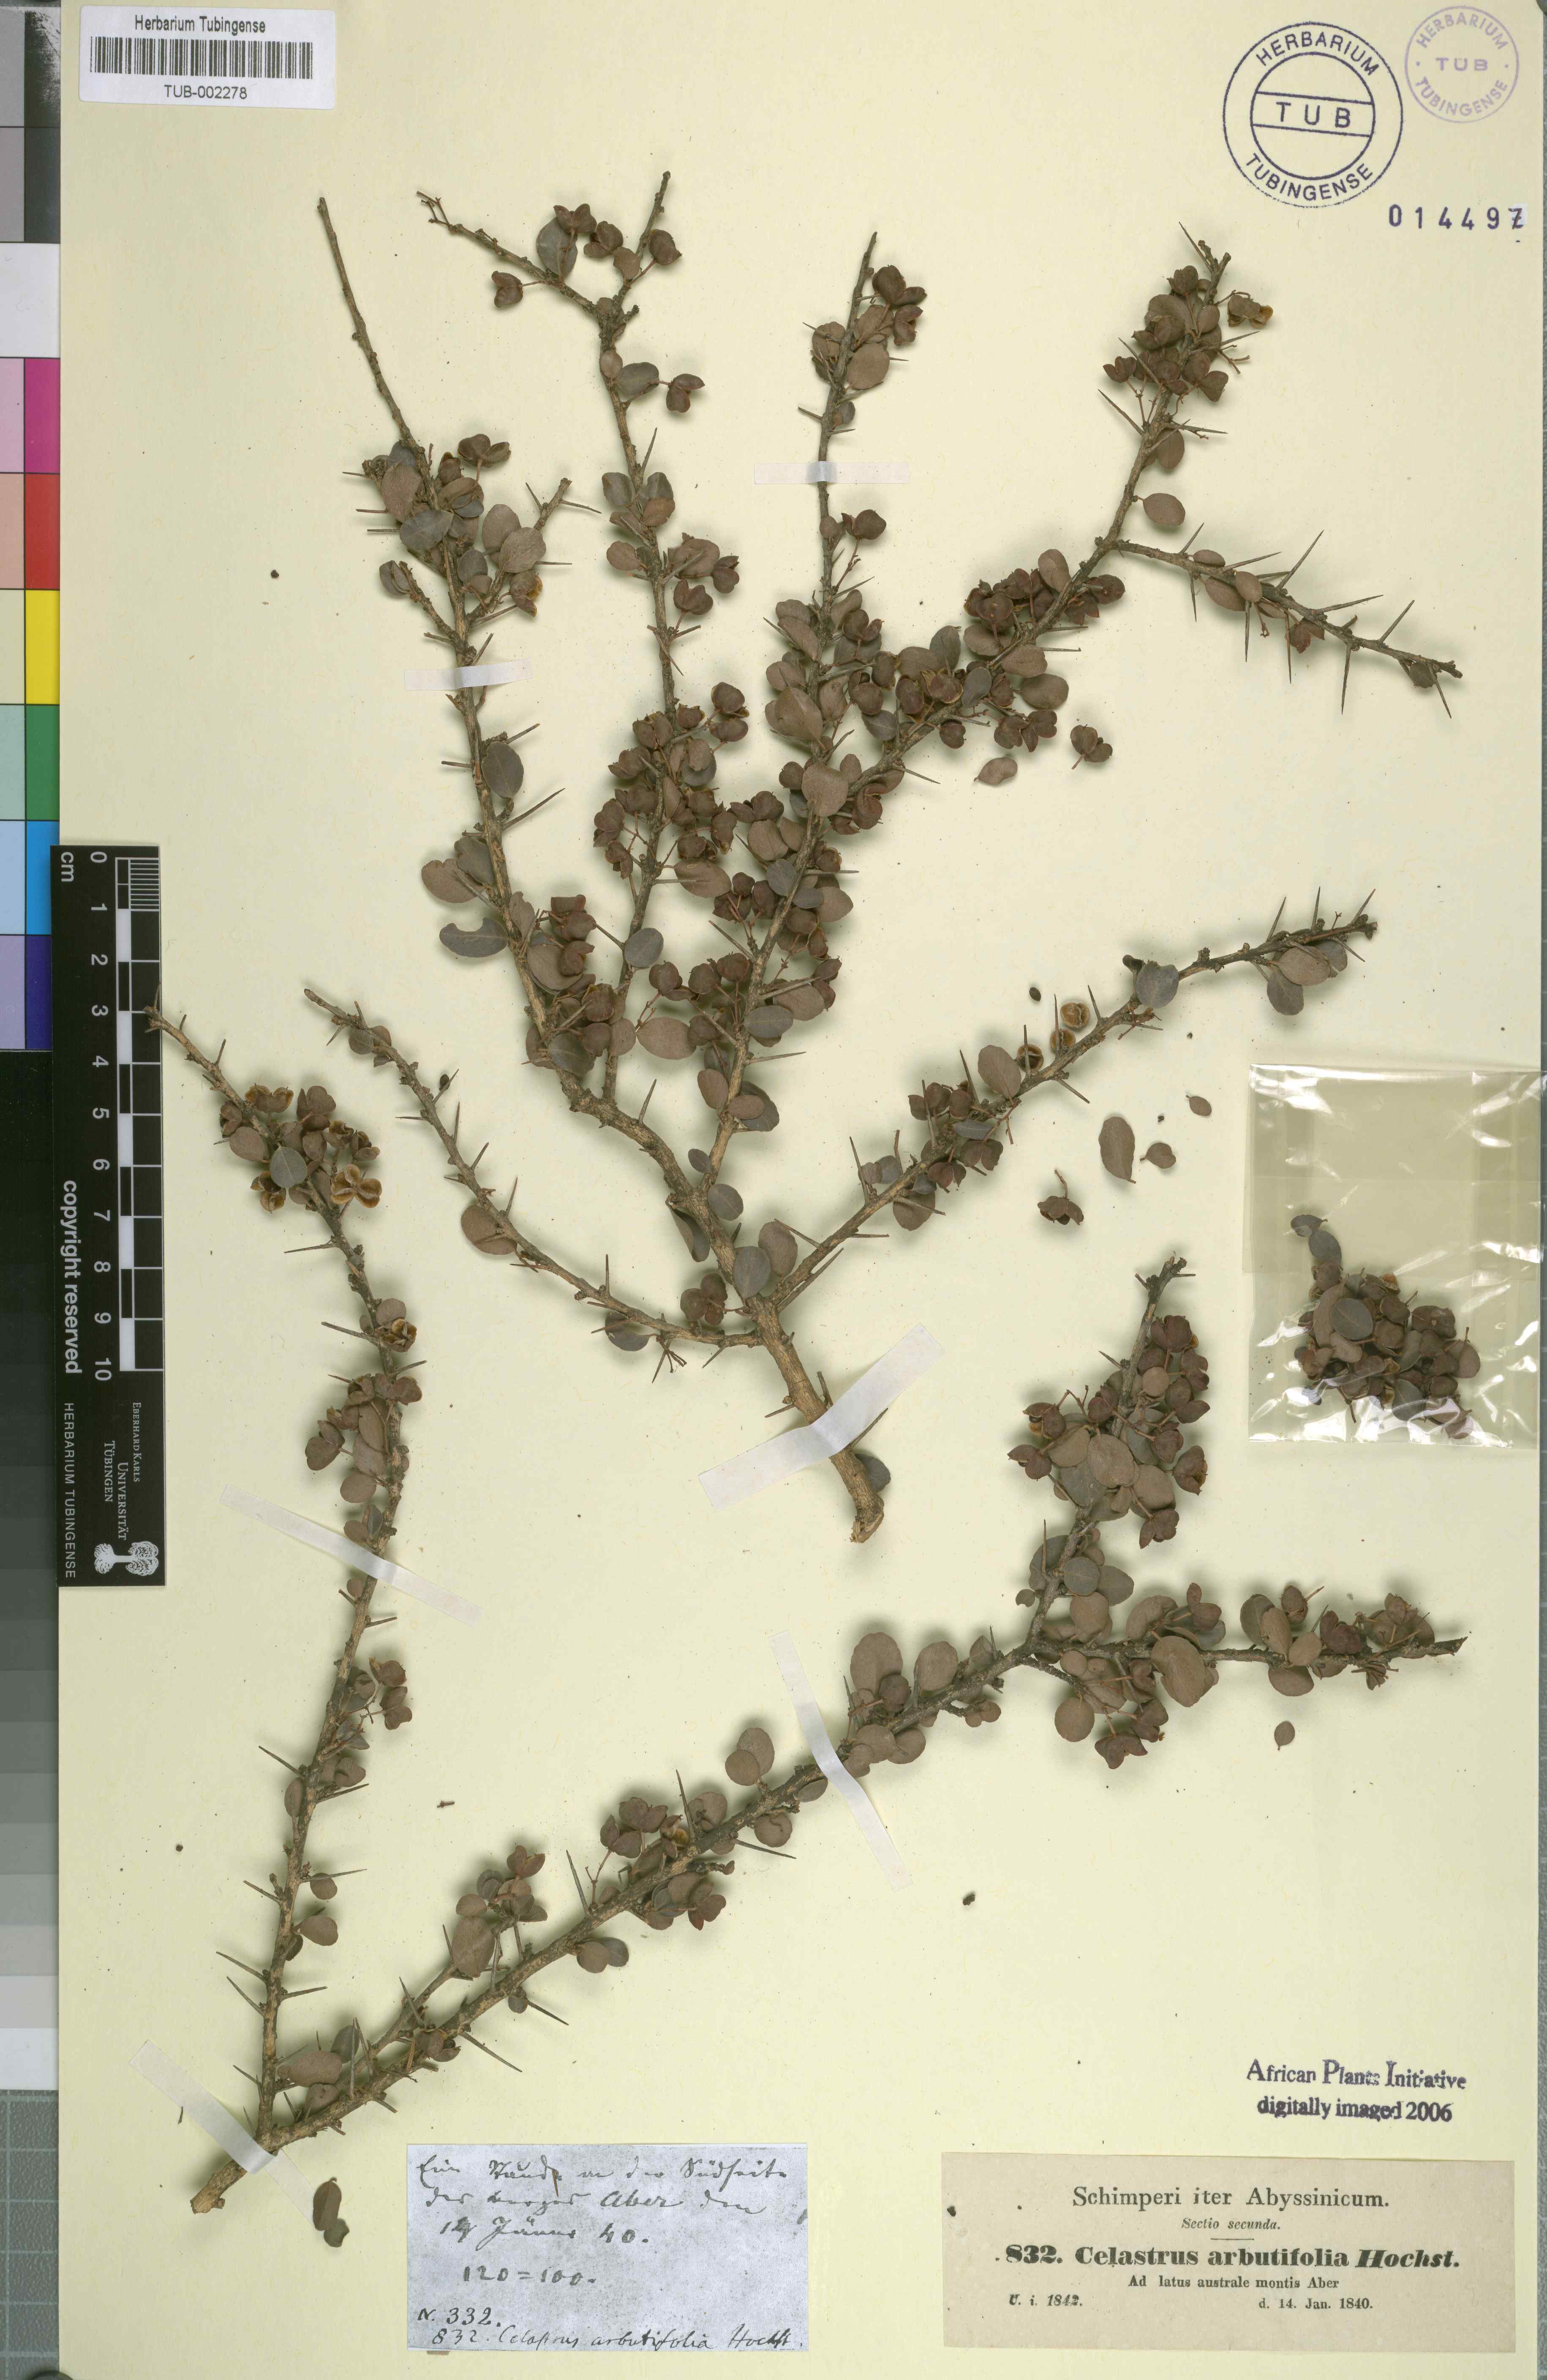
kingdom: Plantae
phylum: Tracheophyta
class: Magnoliopsida
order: Celastrales
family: Celastraceae
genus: Gymnosporia
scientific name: Gymnosporia arbutifolia
